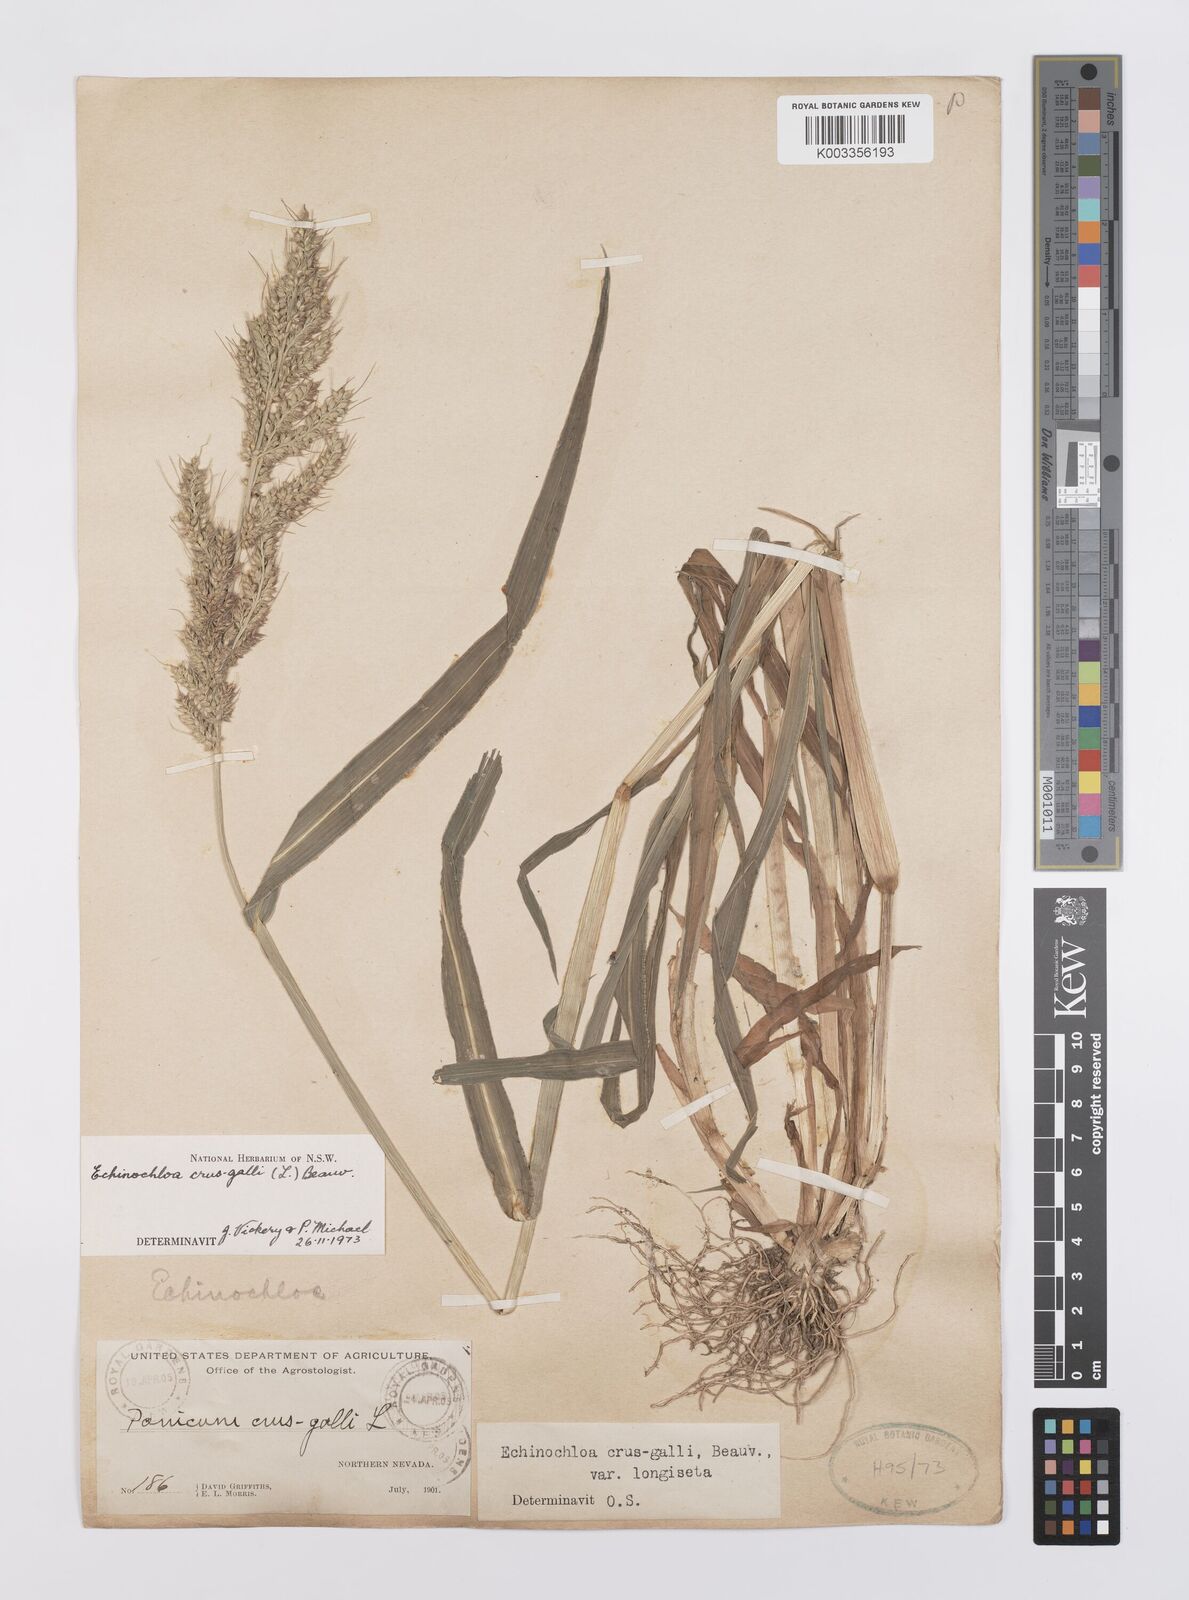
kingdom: Plantae
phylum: Tracheophyta
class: Liliopsida
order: Poales
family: Poaceae
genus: Echinochloa
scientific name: Echinochloa crus-galli
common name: Cockspur
